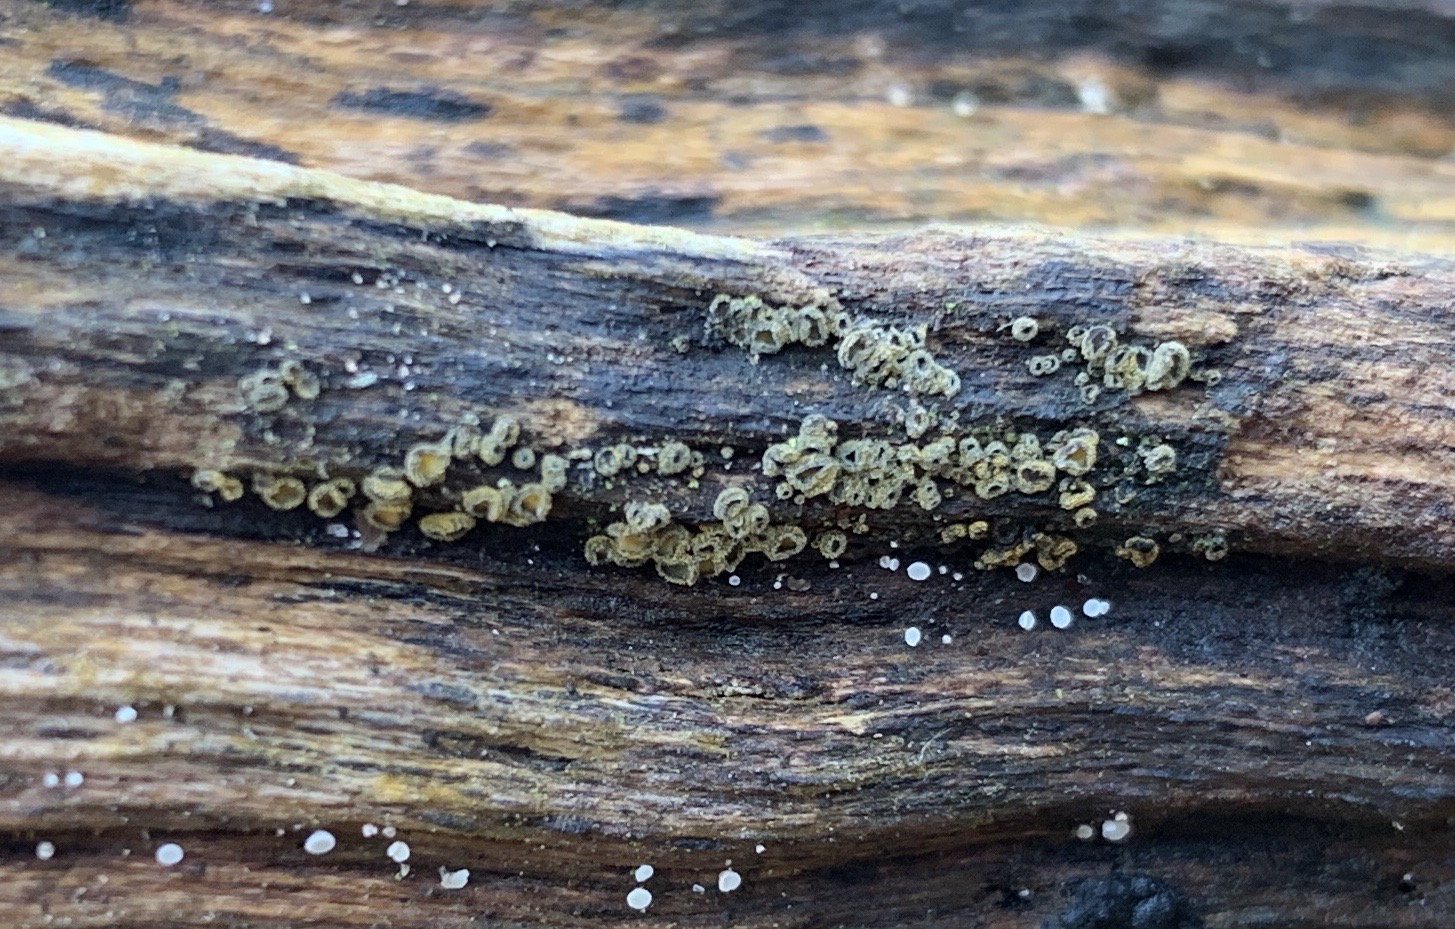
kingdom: Fungi
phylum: Ascomycota
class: Leotiomycetes
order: Helotiales
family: Lachnaceae
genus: Neodasyscypha
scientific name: Neodasyscypha cerina
